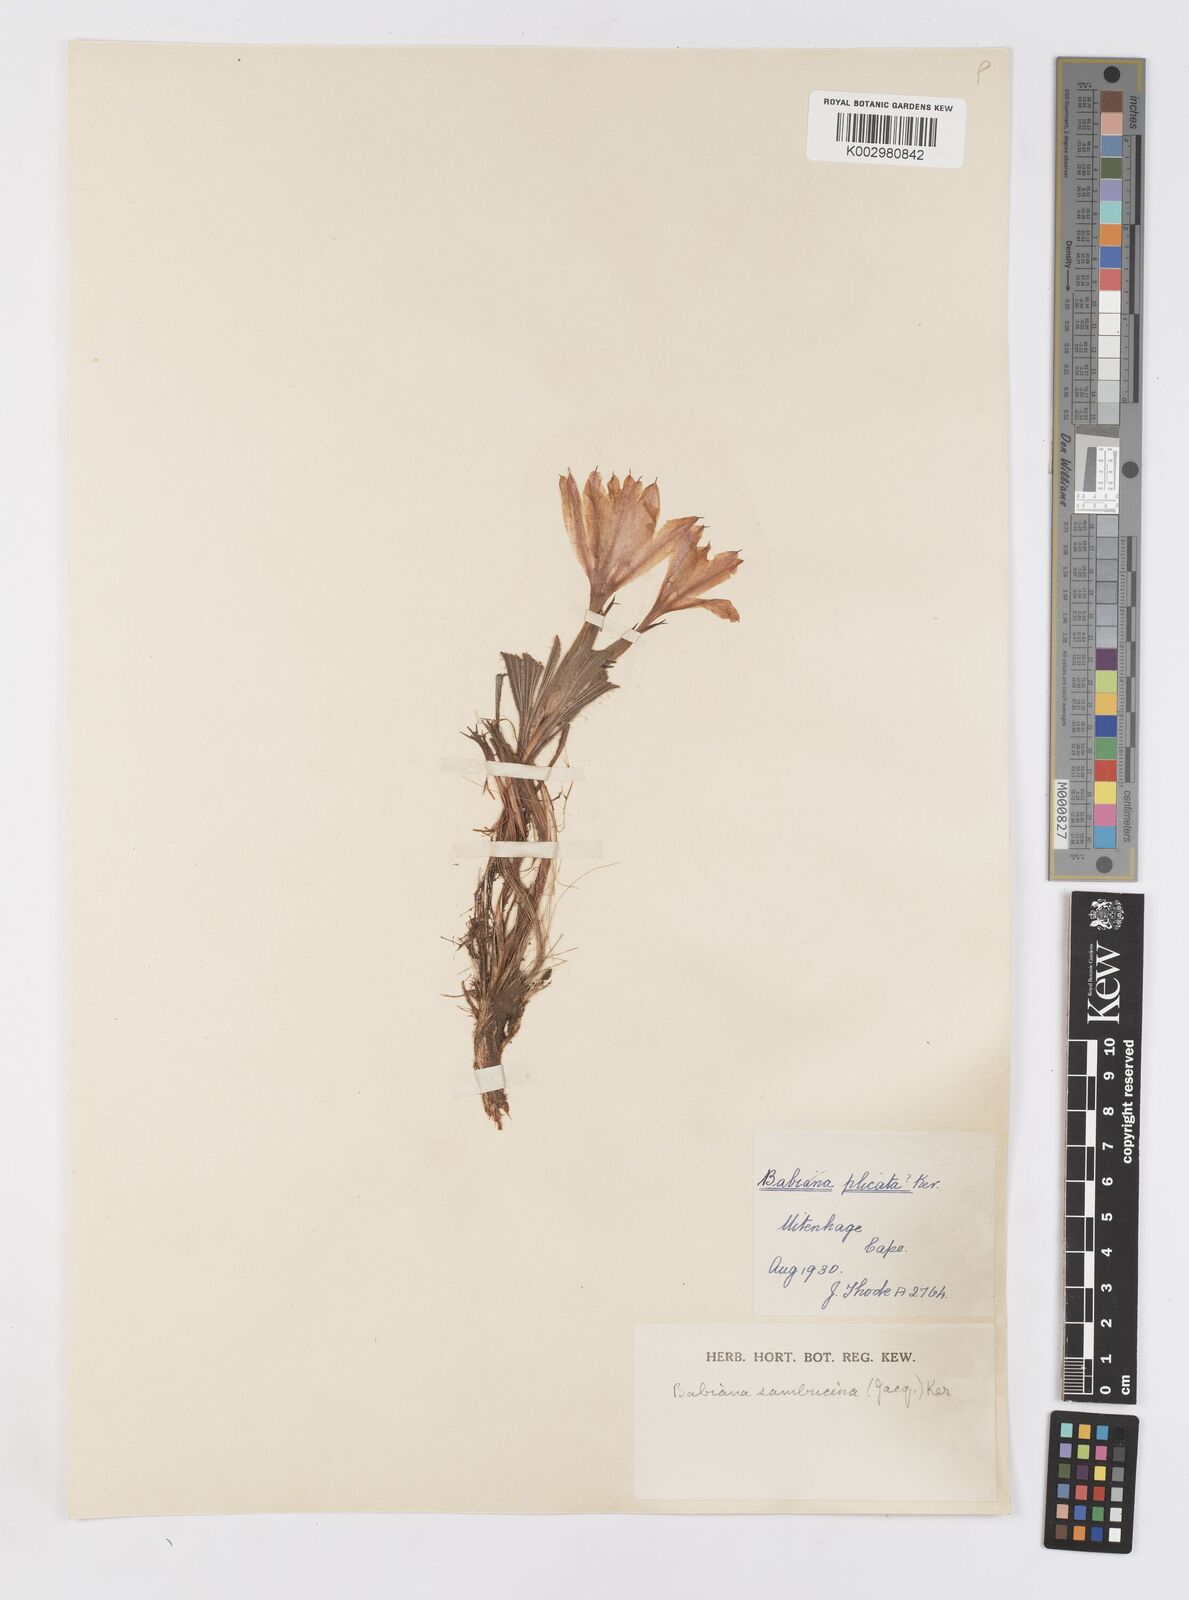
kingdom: Plantae
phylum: Tracheophyta
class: Liliopsida
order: Asparagales
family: Iridaceae
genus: Babiana
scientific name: Babiana sambucina
